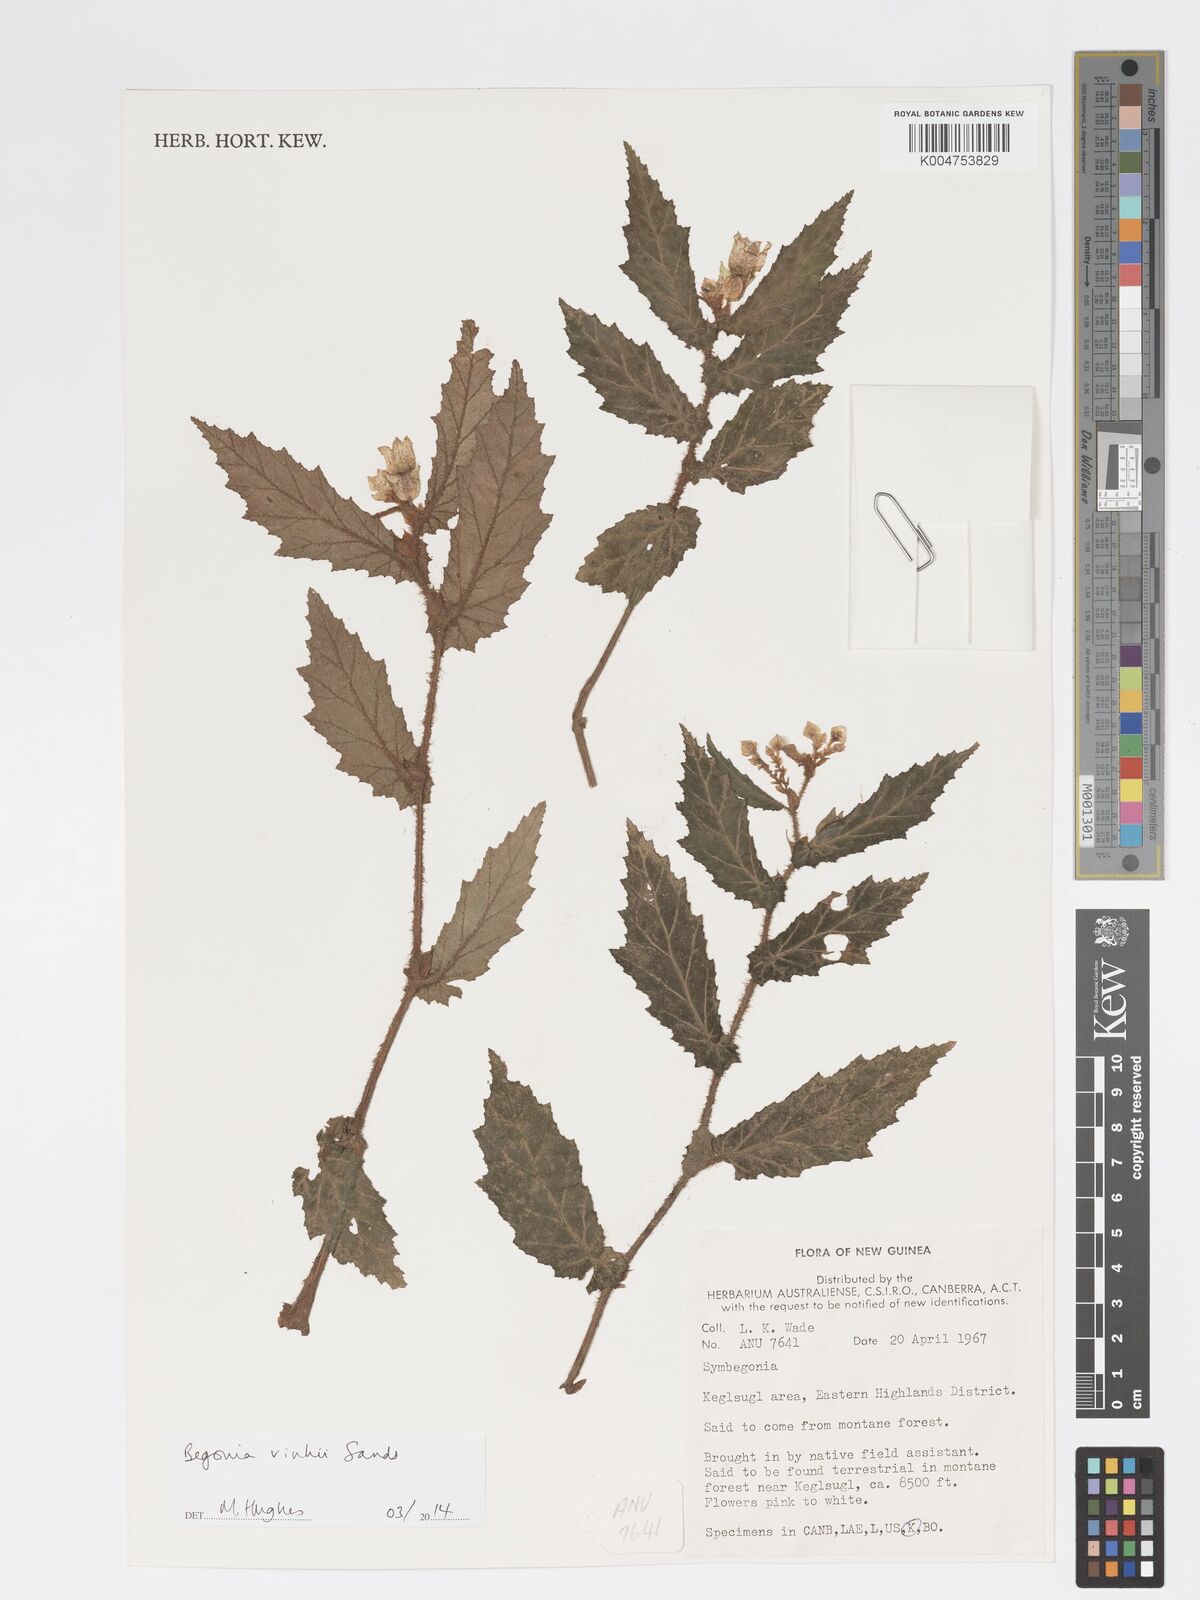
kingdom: Plantae
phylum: Tracheophyta
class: Magnoliopsida
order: Cucurbitales
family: Begoniaceae
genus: Begonia
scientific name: Begonia vinkii
